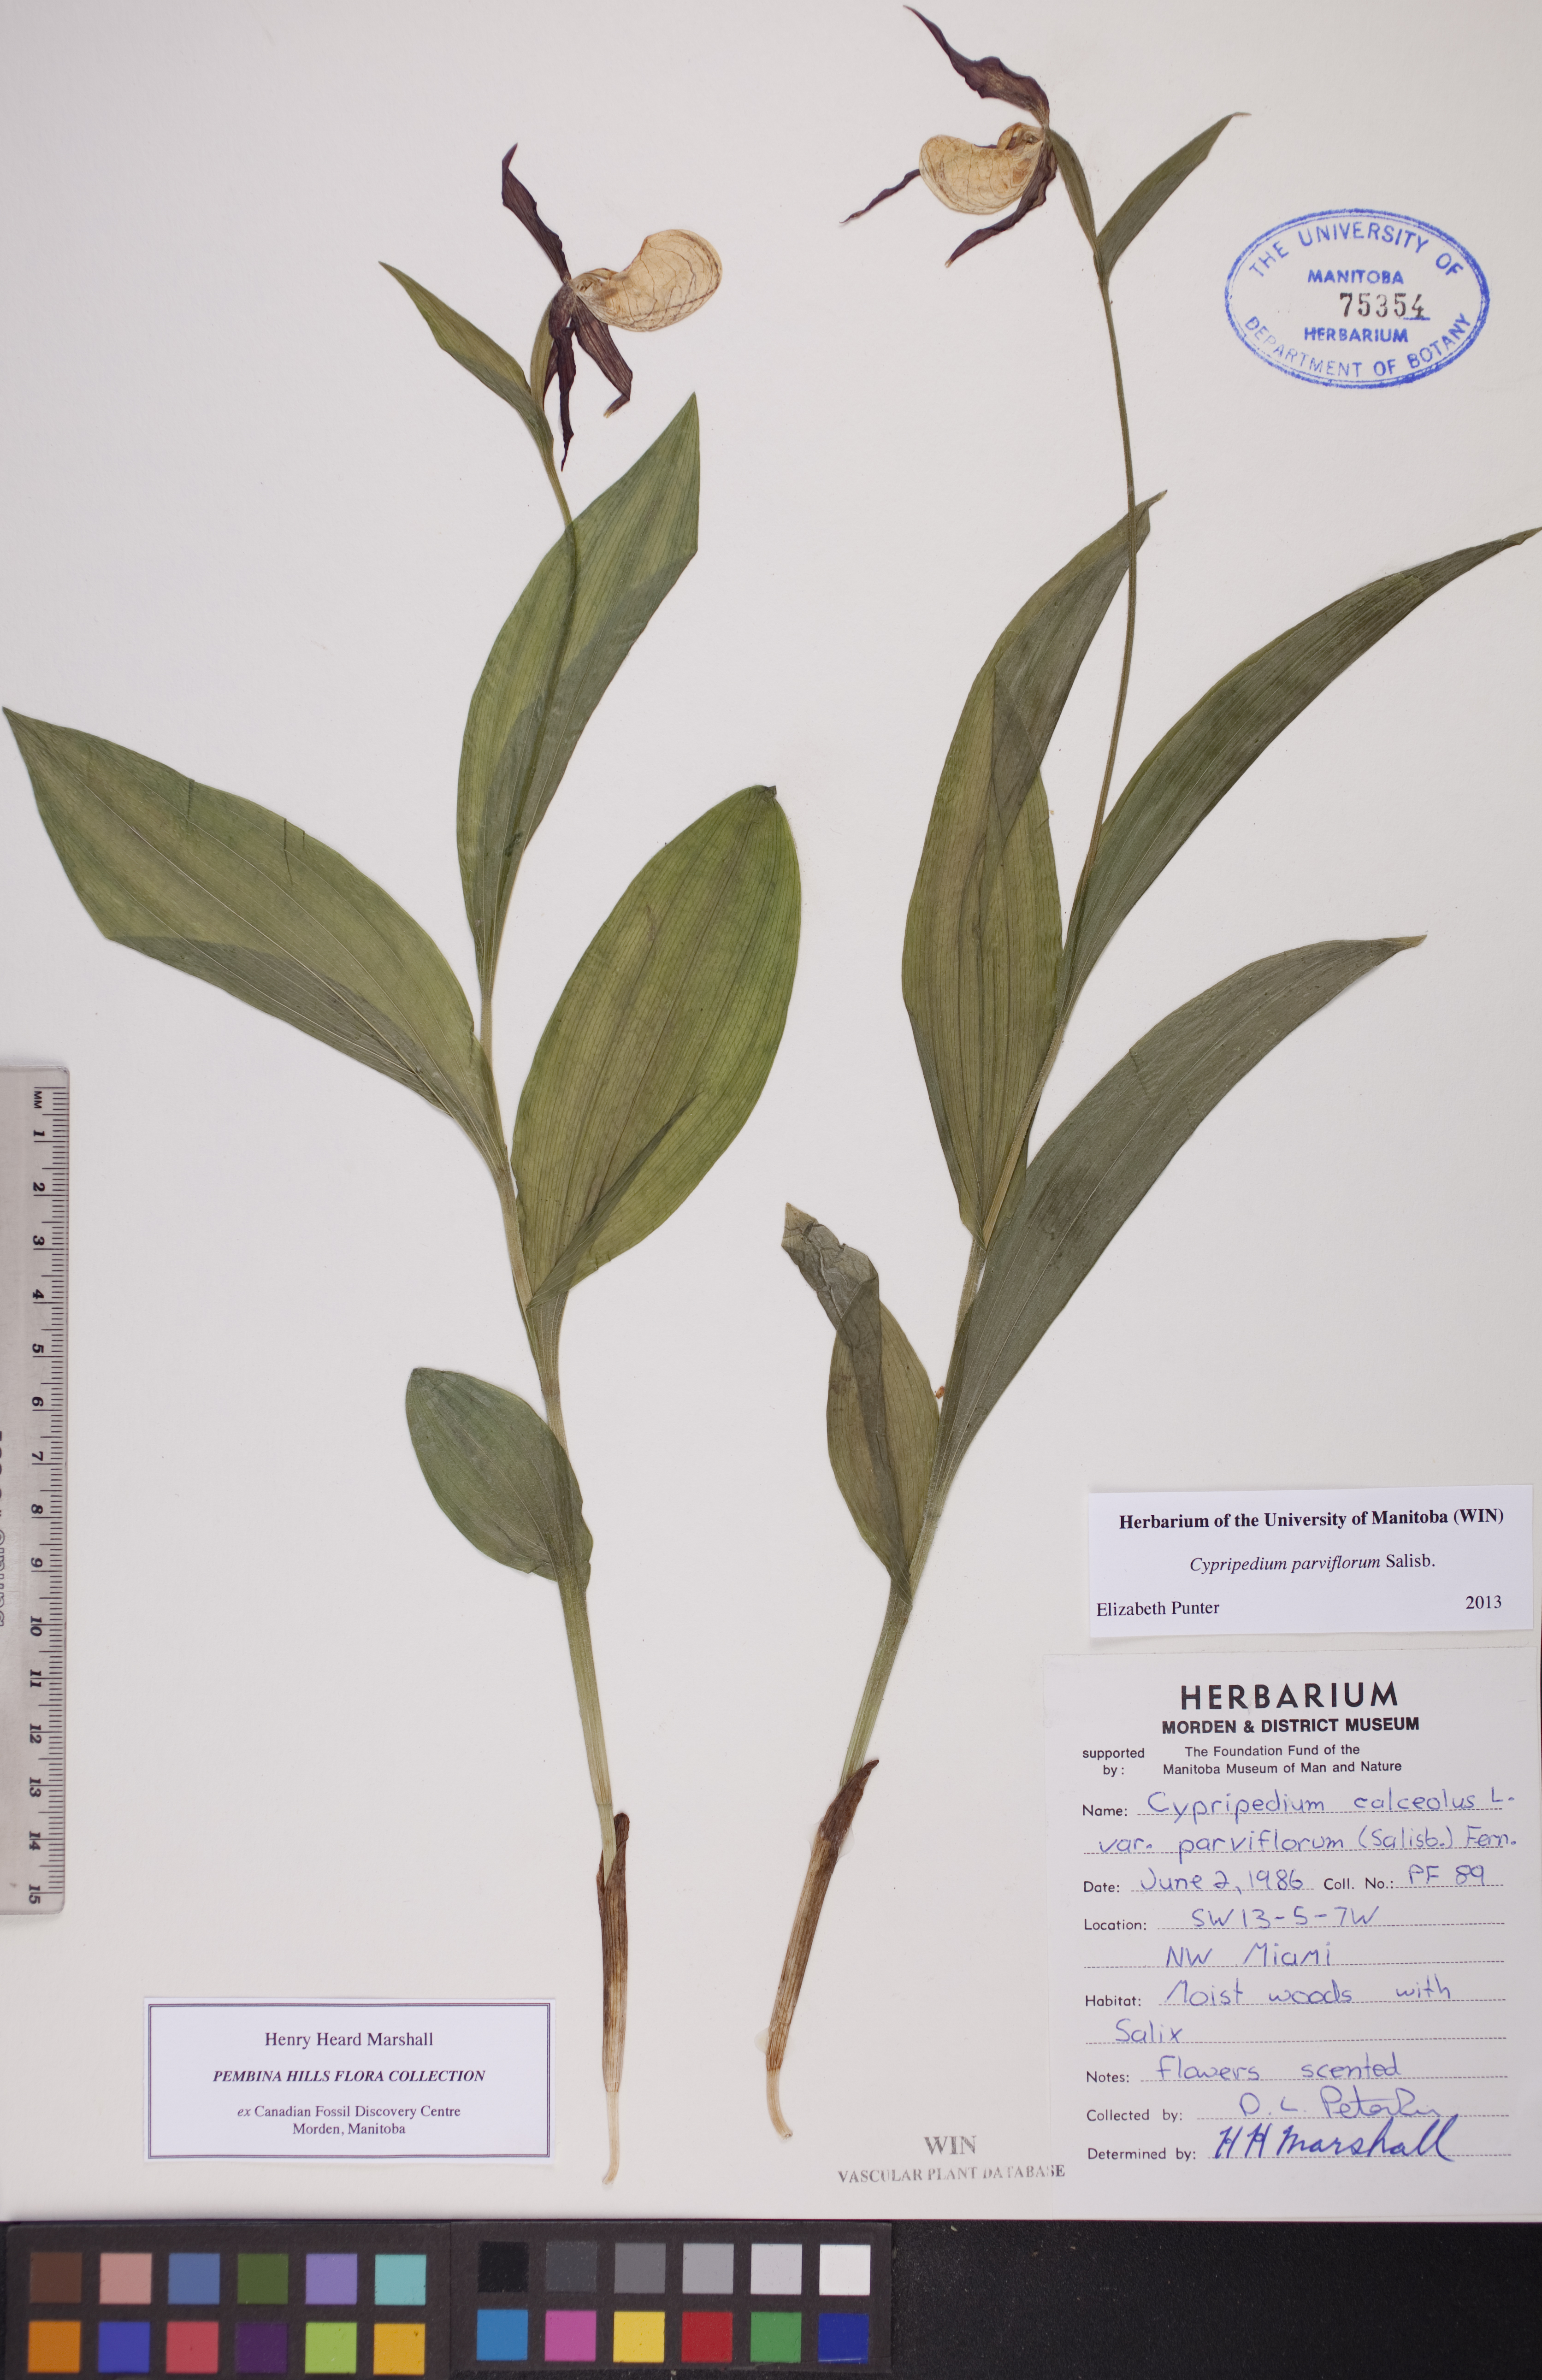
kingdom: Plantae
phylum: Tracheophyta
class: Liliopsida
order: Asparagales
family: Orchidaceae
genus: Cypripedium
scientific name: Cypripedium parviflorum
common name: American yellow lady's-slipper
